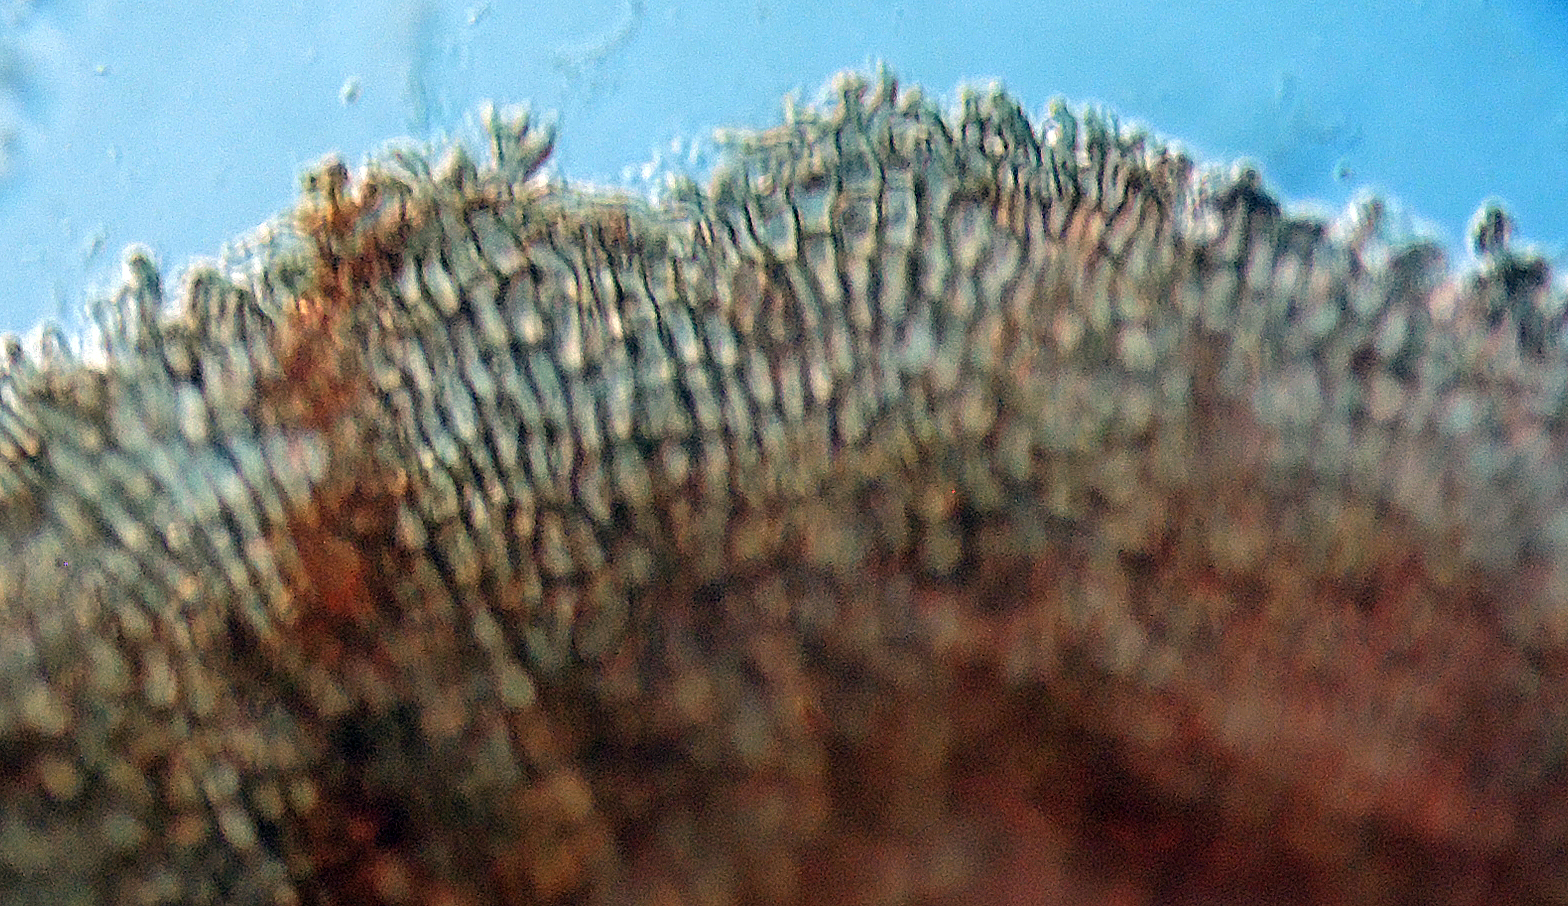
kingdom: Fungi
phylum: Ascomycota
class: Dothideomycetes
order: Microthyriales
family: Microthyriaceae
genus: Microthyrium
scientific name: Microthyrium microscopicum
